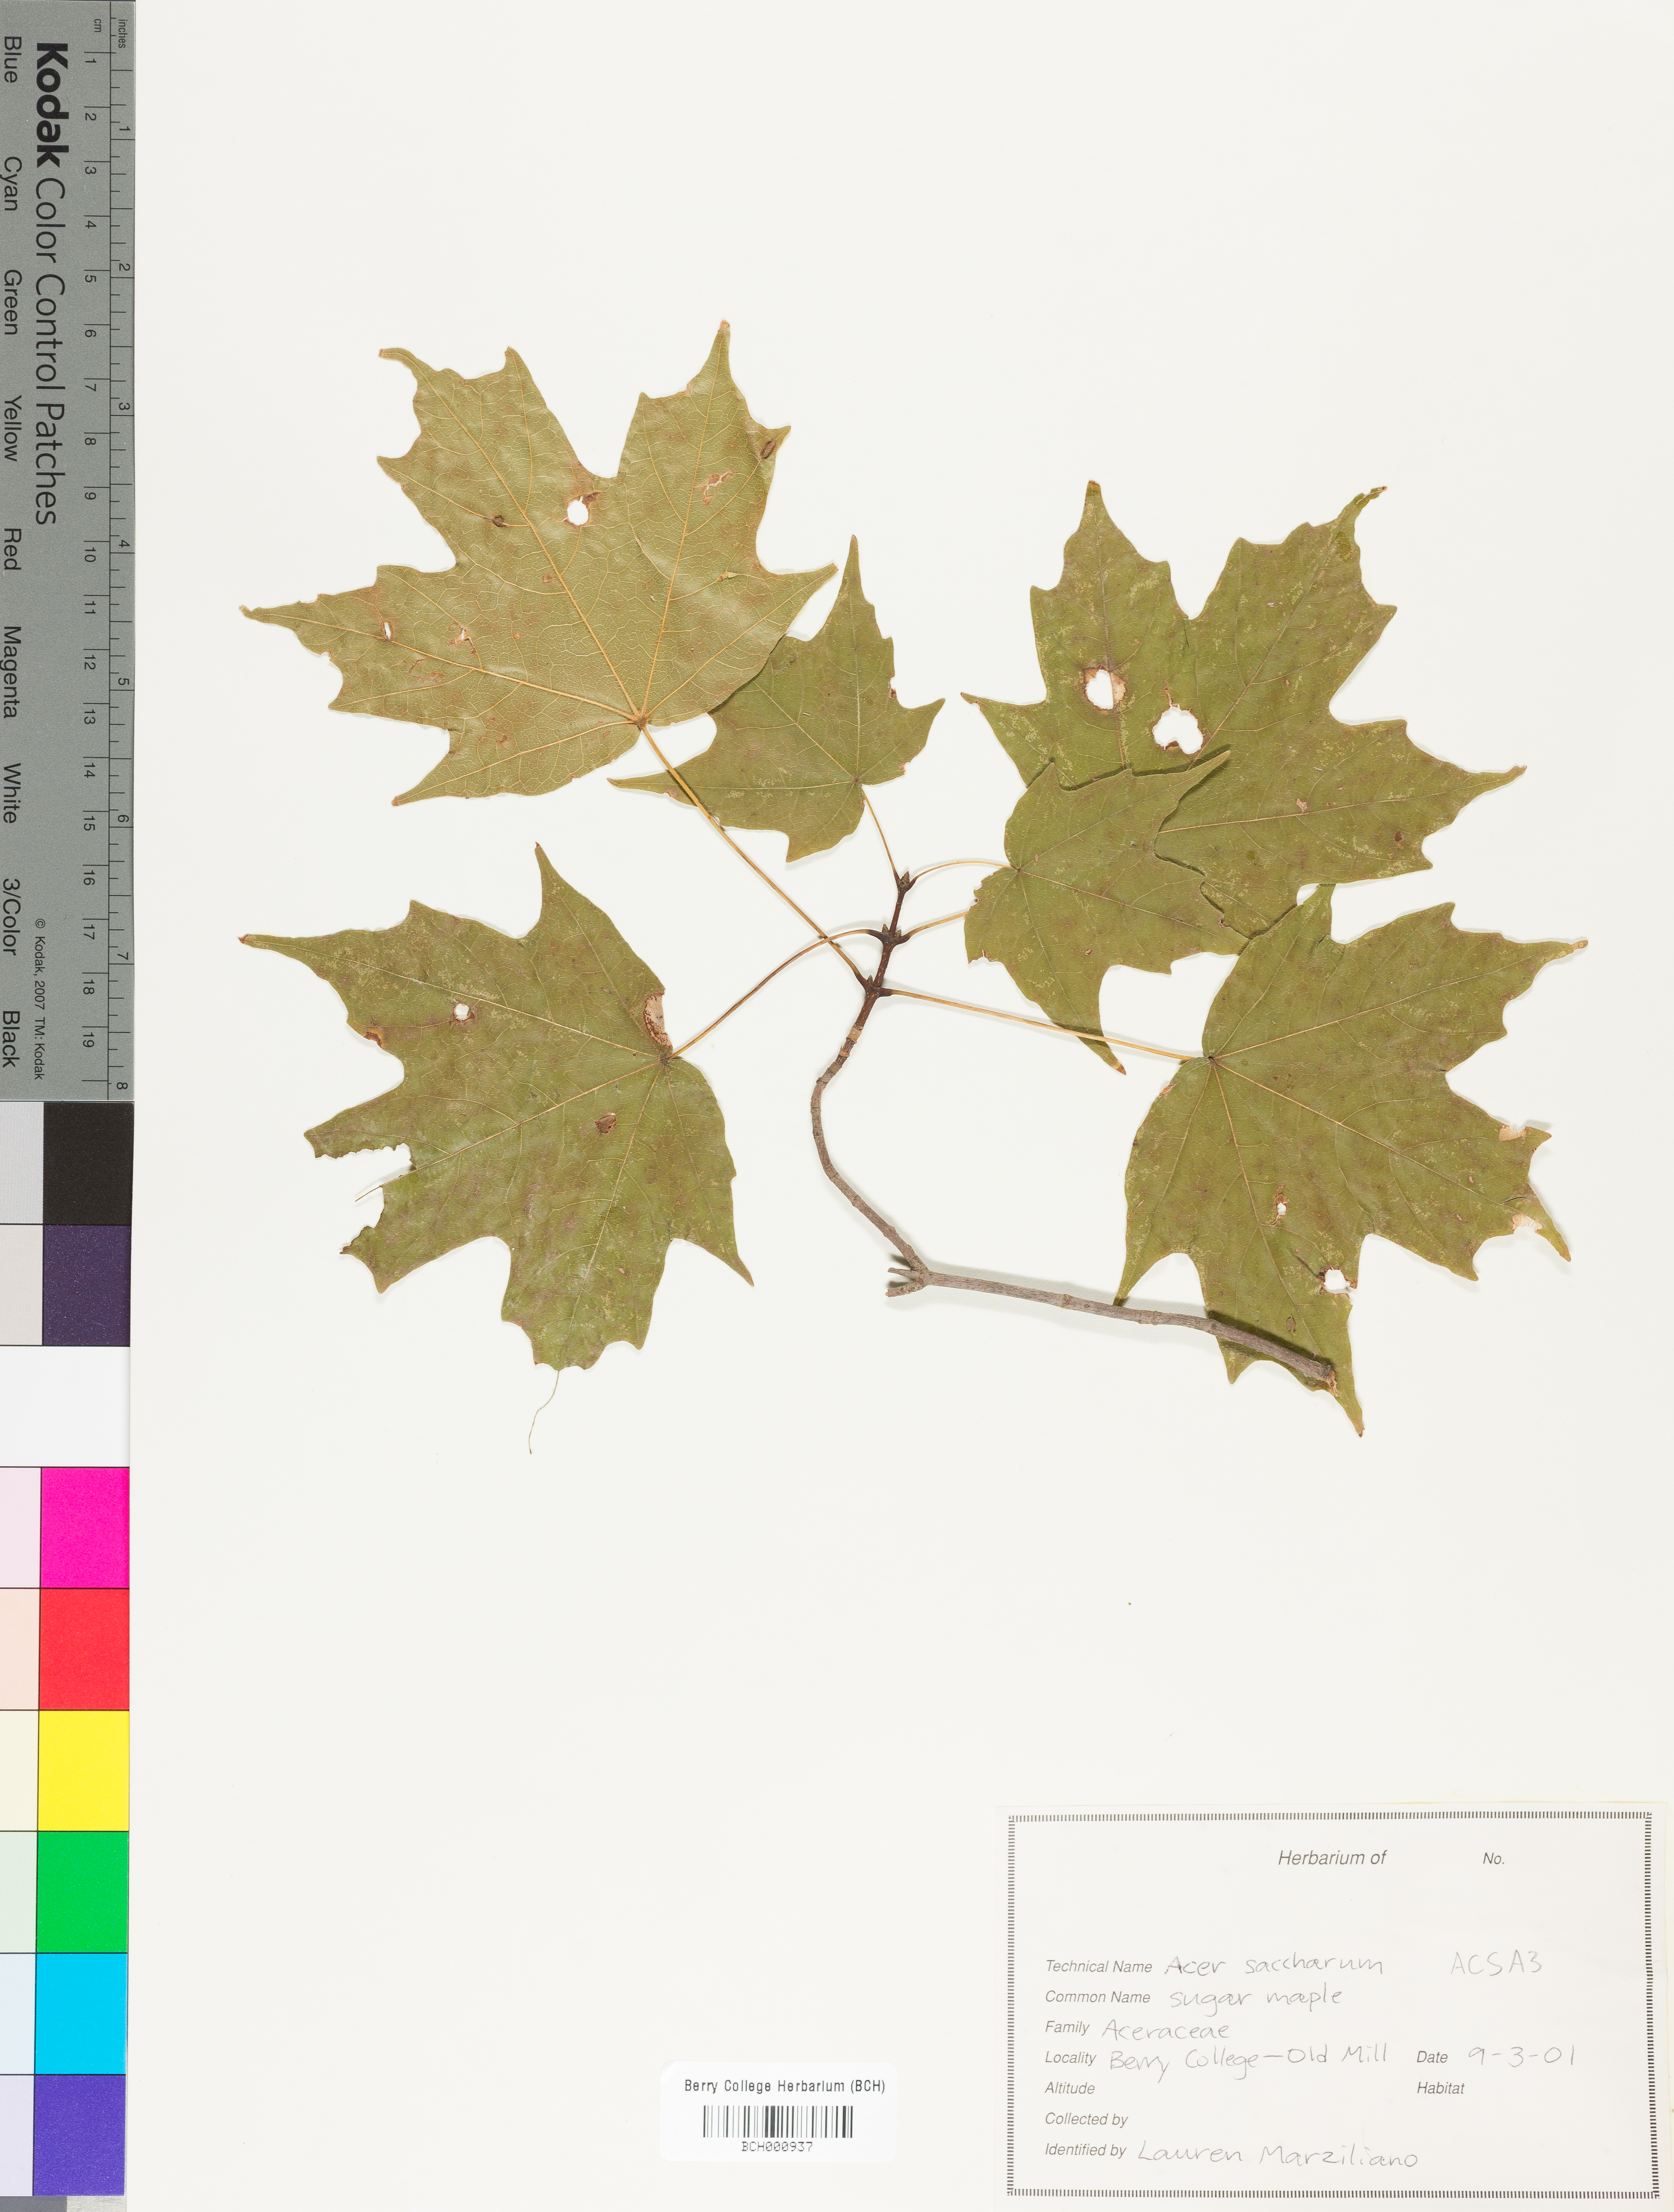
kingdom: Plantae
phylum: Tracheophyta
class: Magnoliopsida
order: Sapindales
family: Sapindaceae
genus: Acer
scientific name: Acer saccharum
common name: Sugar maple
